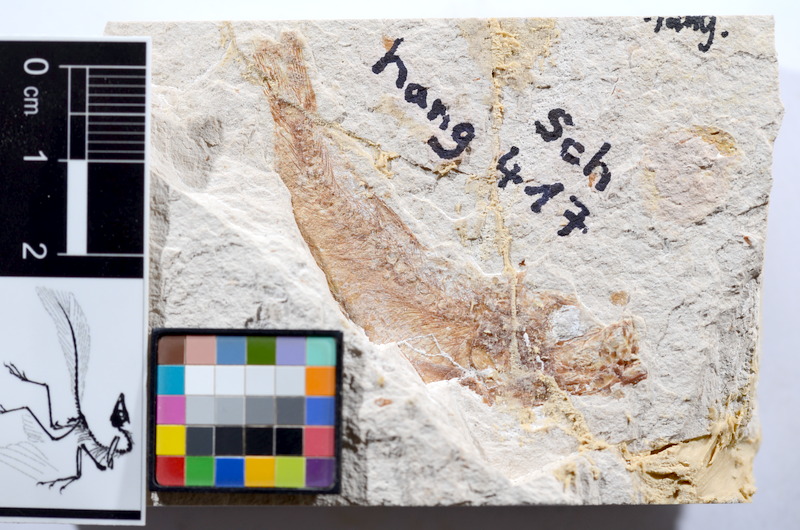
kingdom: Animalia
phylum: Chordata
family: Ascalaboidae
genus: Tharsis
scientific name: Tharsis dubius
